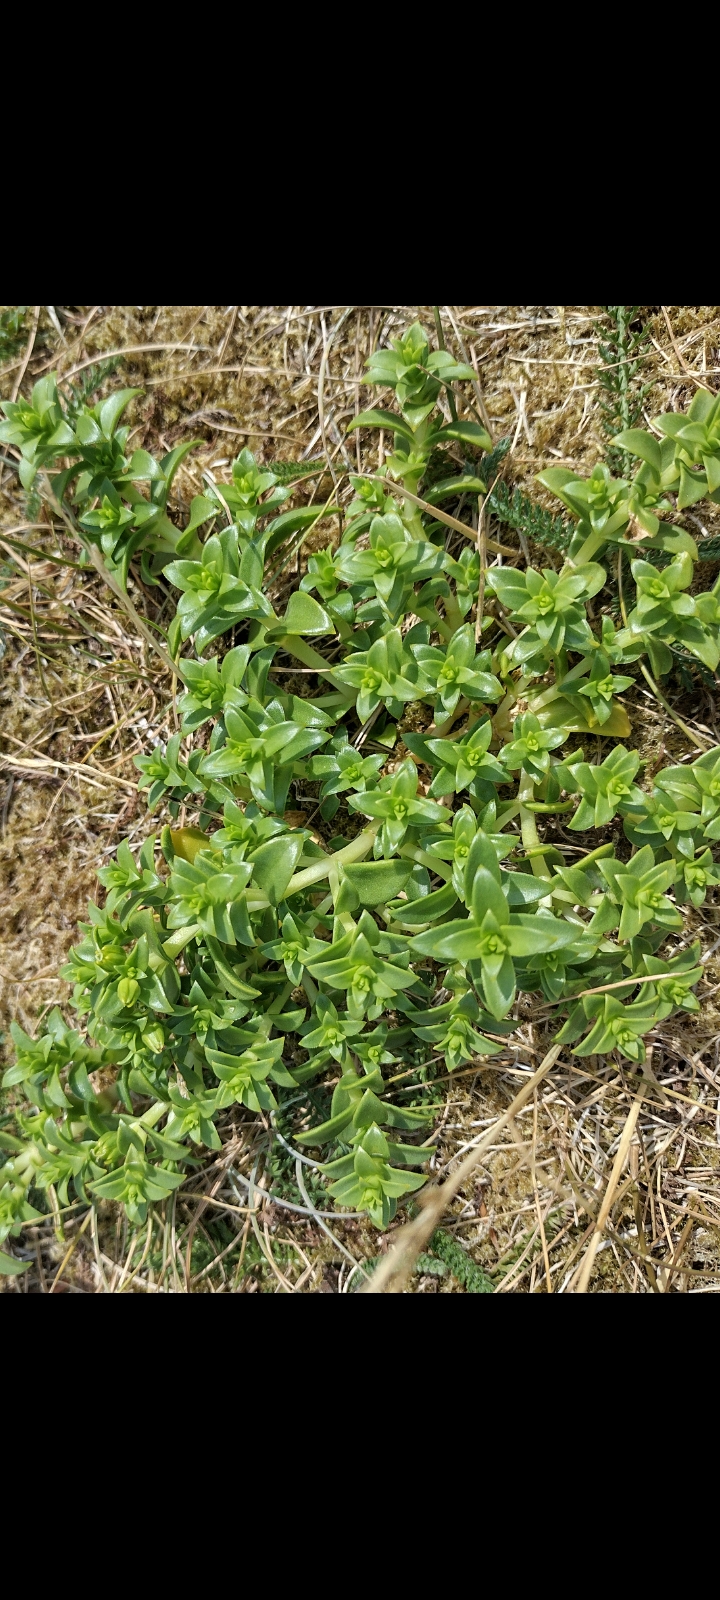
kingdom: Plantae
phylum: Tracheophyta
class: Magnoliopsida
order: Caryophyllales
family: Caryophyllaceae
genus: Honckenya
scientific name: Honckenya peploides
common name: Strandarve
